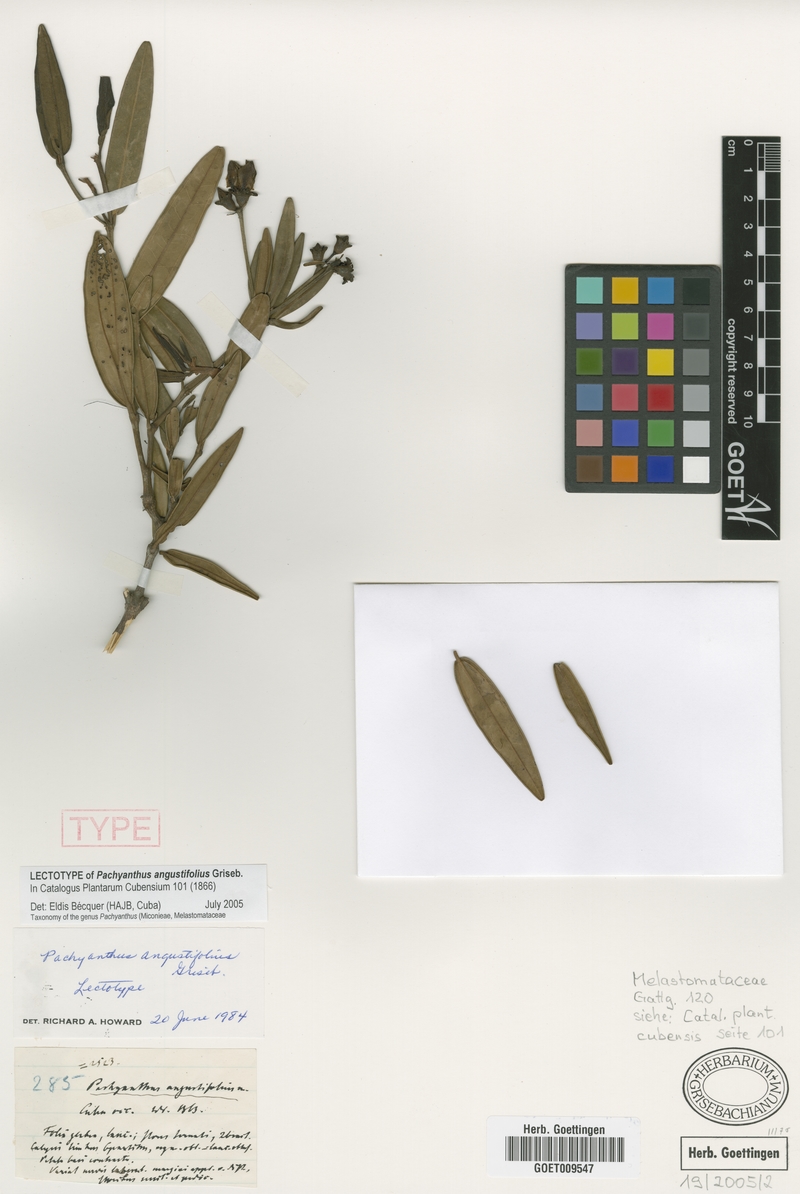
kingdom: Plantae
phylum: Tracheophyta
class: Magnoliopsida
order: Myrtales
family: Melastomataceae
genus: Miconia
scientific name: Miconia secundoangustifolia
